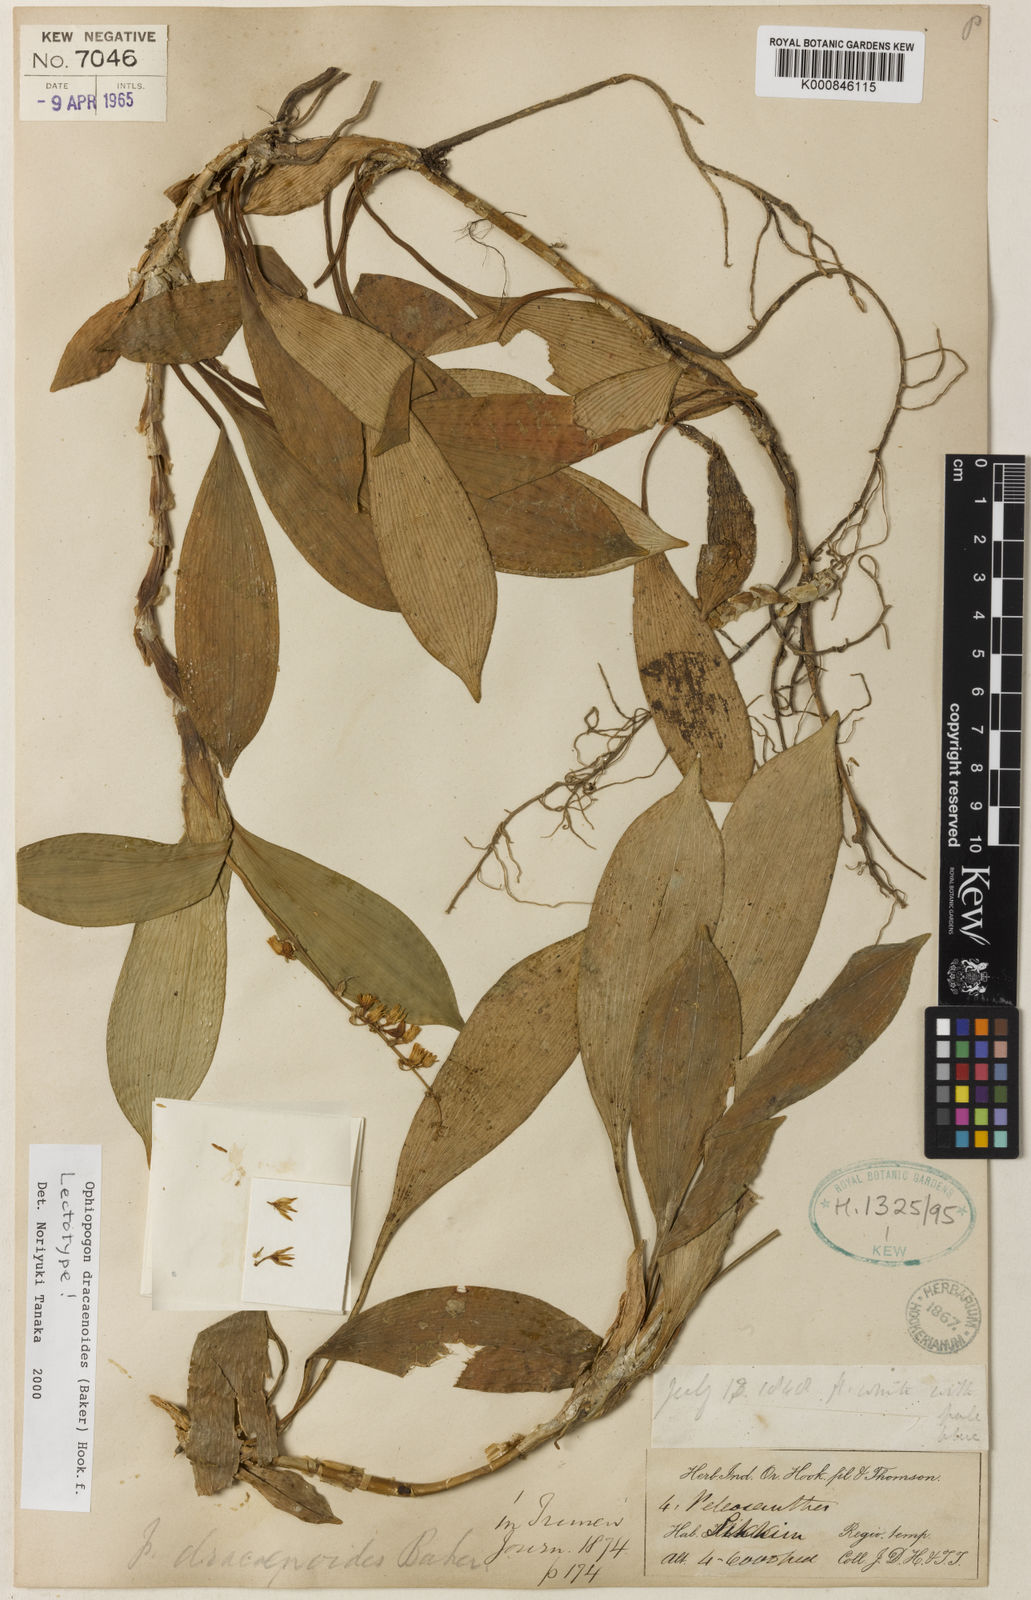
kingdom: Plantae
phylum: Tracheophyta
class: Liliopsida
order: Asparagales
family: Asparagaceae
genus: Ophiopogon
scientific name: Ophiopogon dracaenoides
